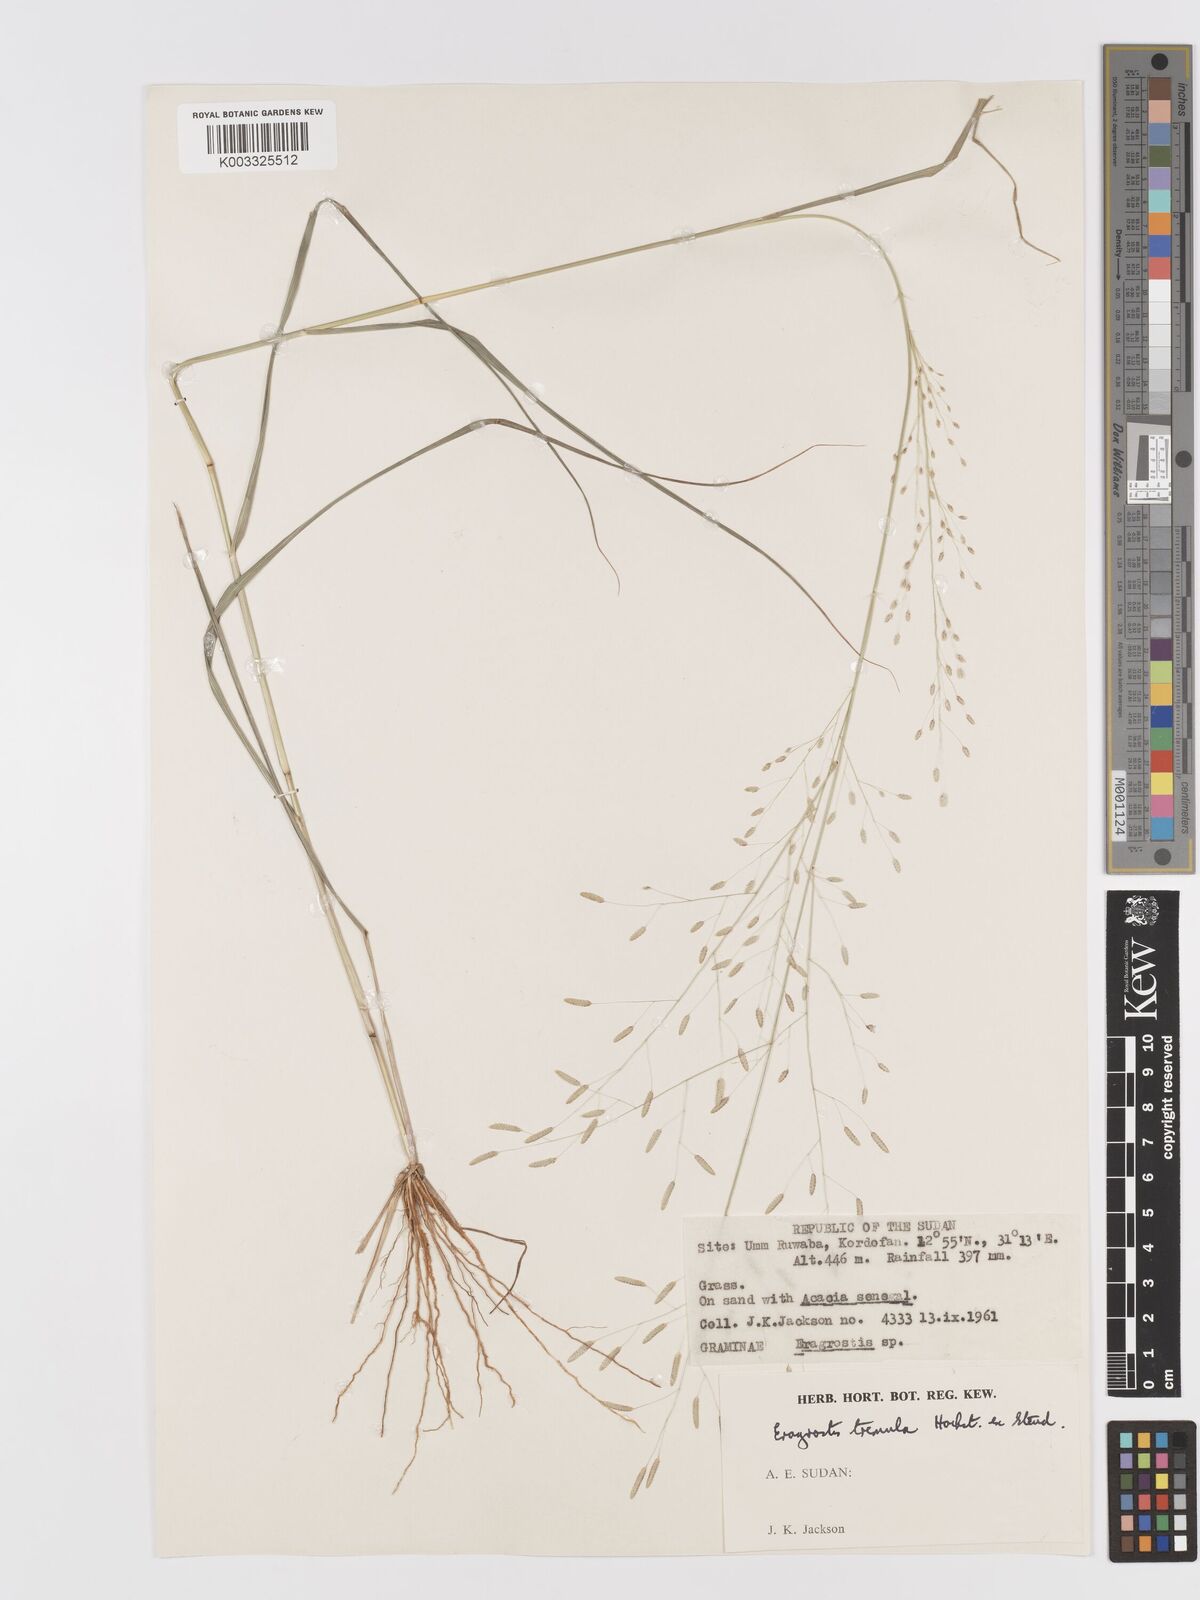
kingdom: Plantae
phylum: Tracheophyta
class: Liliopsida
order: Poales
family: Poaceae
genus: Eragrostis
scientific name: Eragrostis tremula
